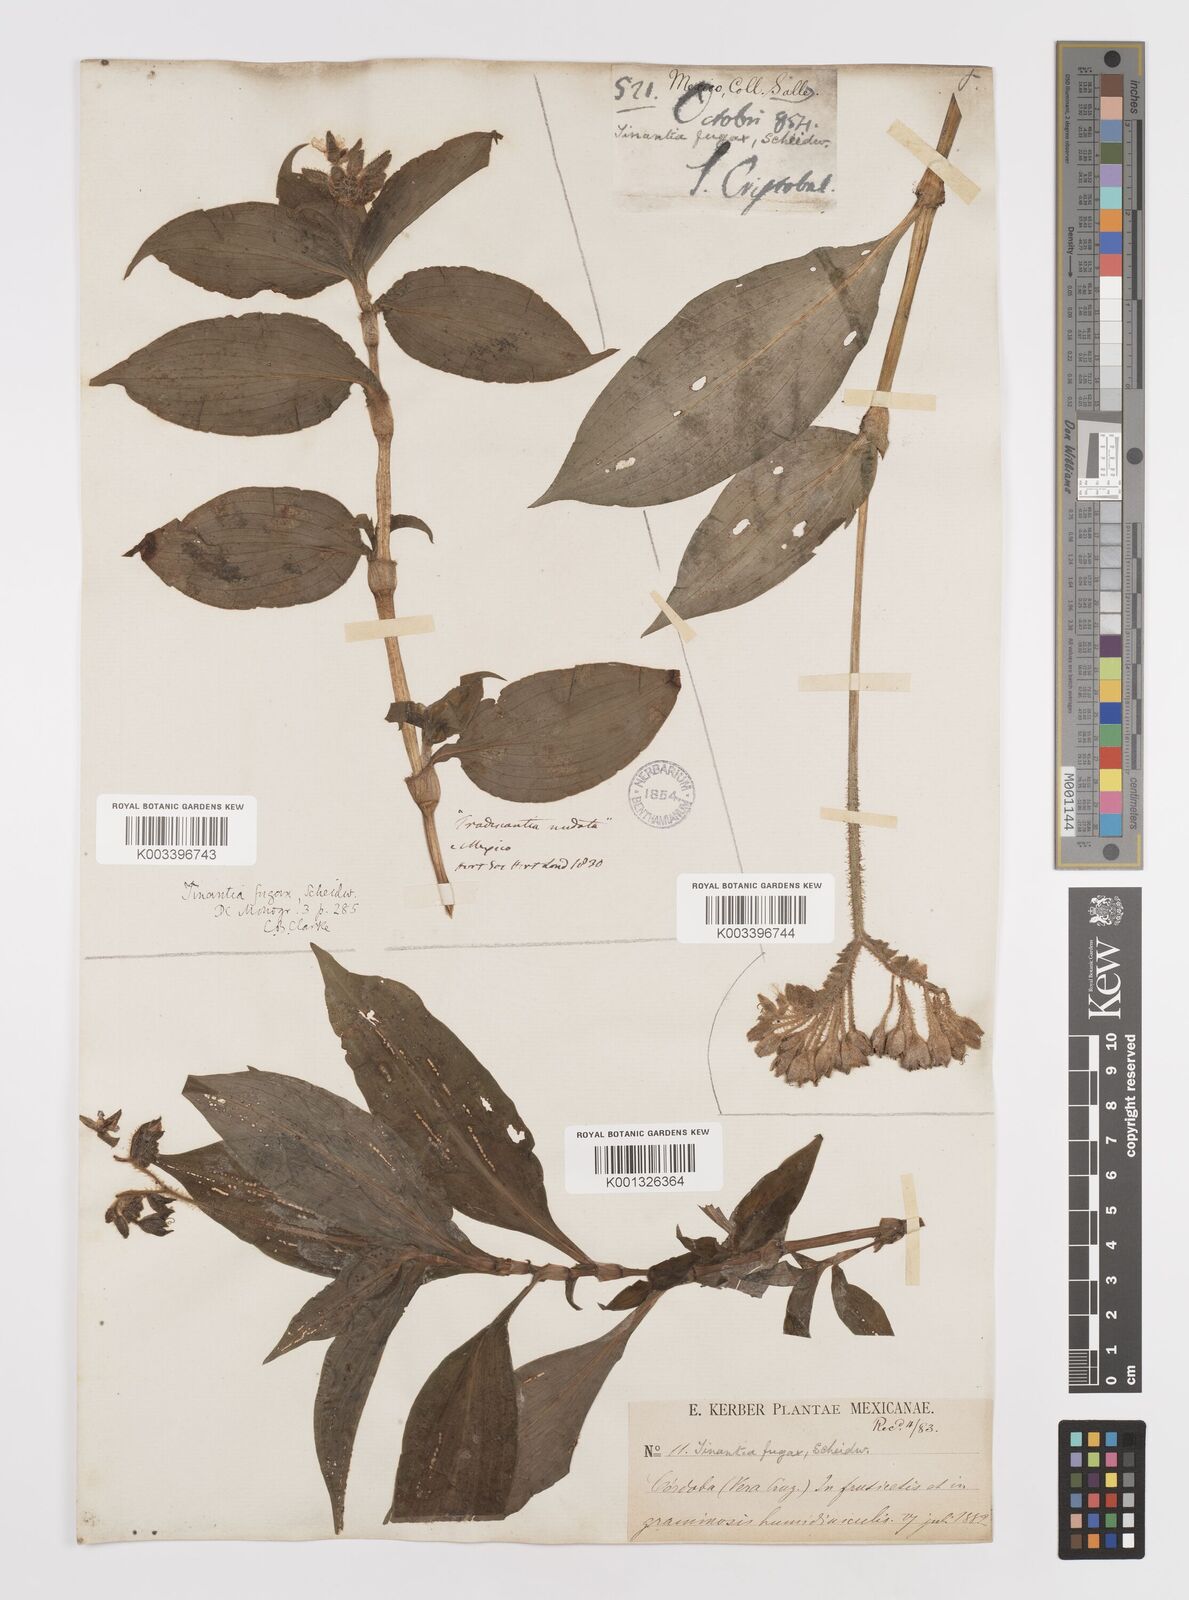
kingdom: Plantae
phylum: Tracheophyta
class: Liliopsida
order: Commelinales
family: Commelinaceae
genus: Tinantia
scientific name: Tinantia erecta
